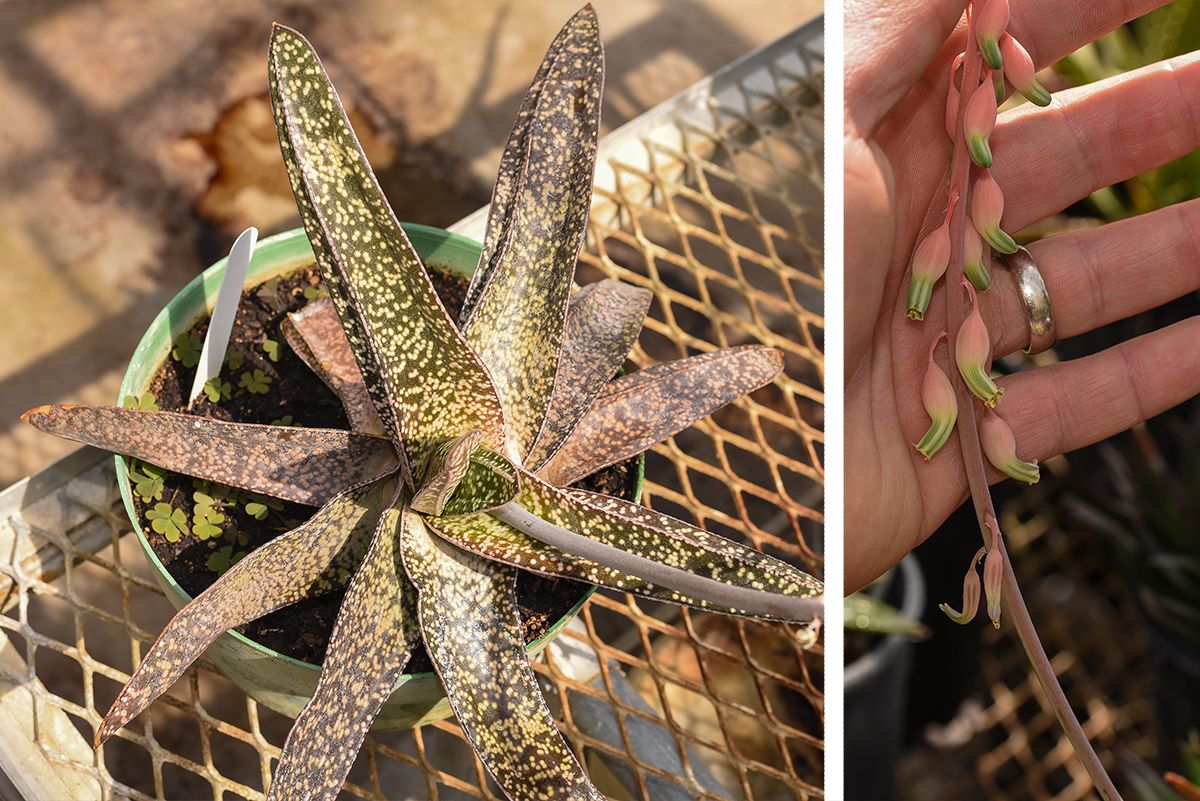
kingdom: Plantae
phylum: Tracheophyta
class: Liliopsida
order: Asparagales
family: Asphodelaceae
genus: Gasteria
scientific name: Gasteria obliqua
